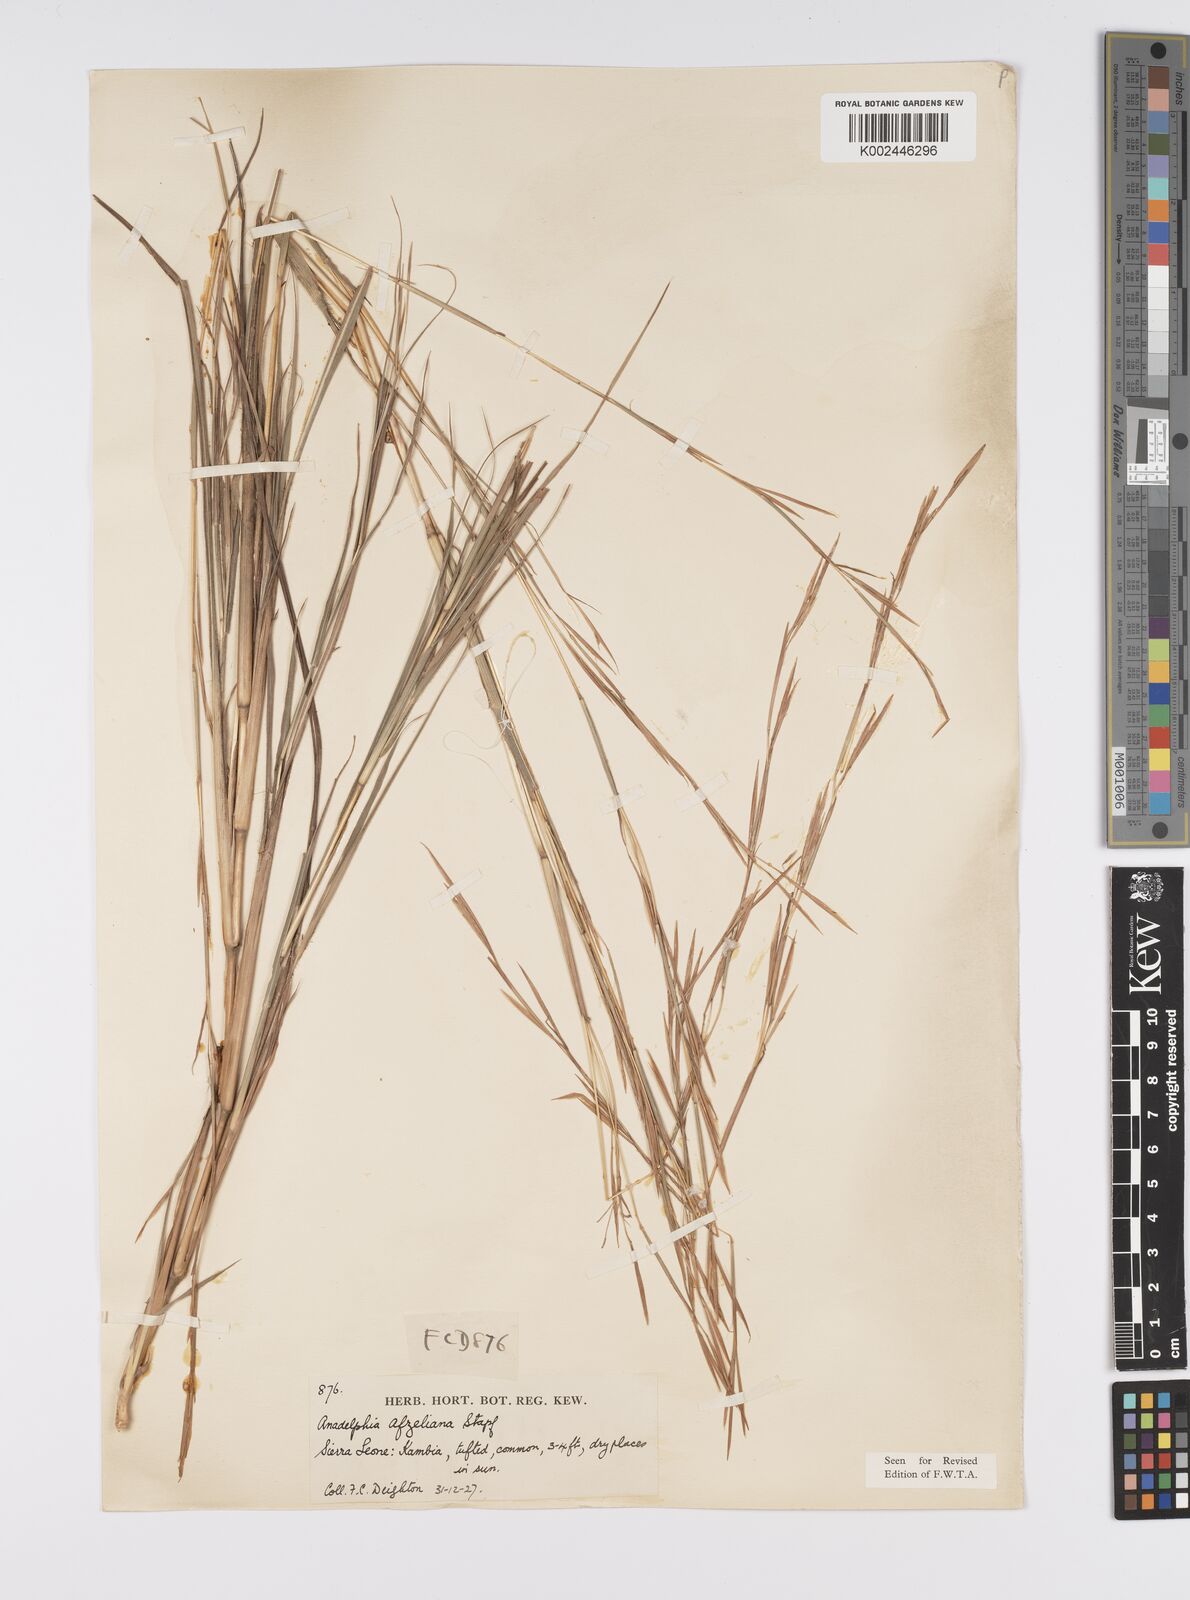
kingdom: Plantae
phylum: Tracheophyta
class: Liliopsida
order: Poales
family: Poaceae
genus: Anadelphia
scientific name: Anadelphia afzeliana
